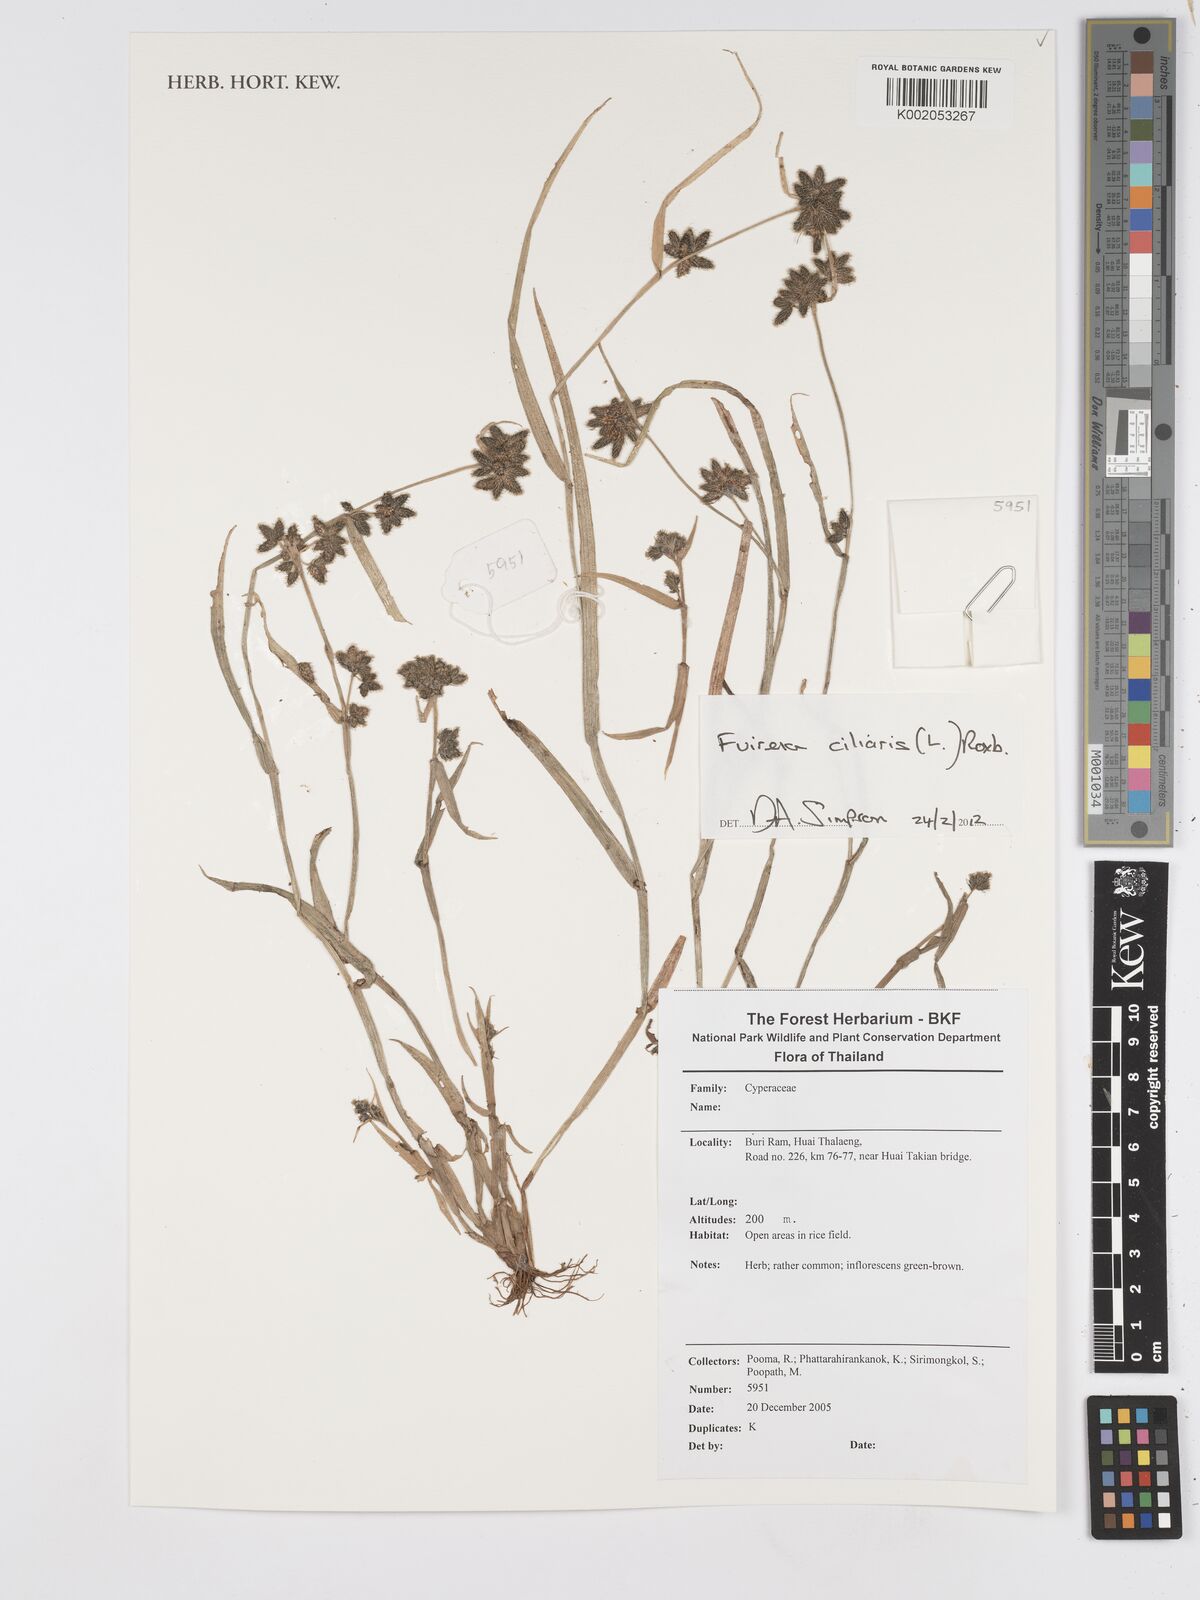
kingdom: Plantae
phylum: Tracheophyta
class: Liliopsida
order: Poales
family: Cyperaceae
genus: Fuirena
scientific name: Fuirena ciliaris
